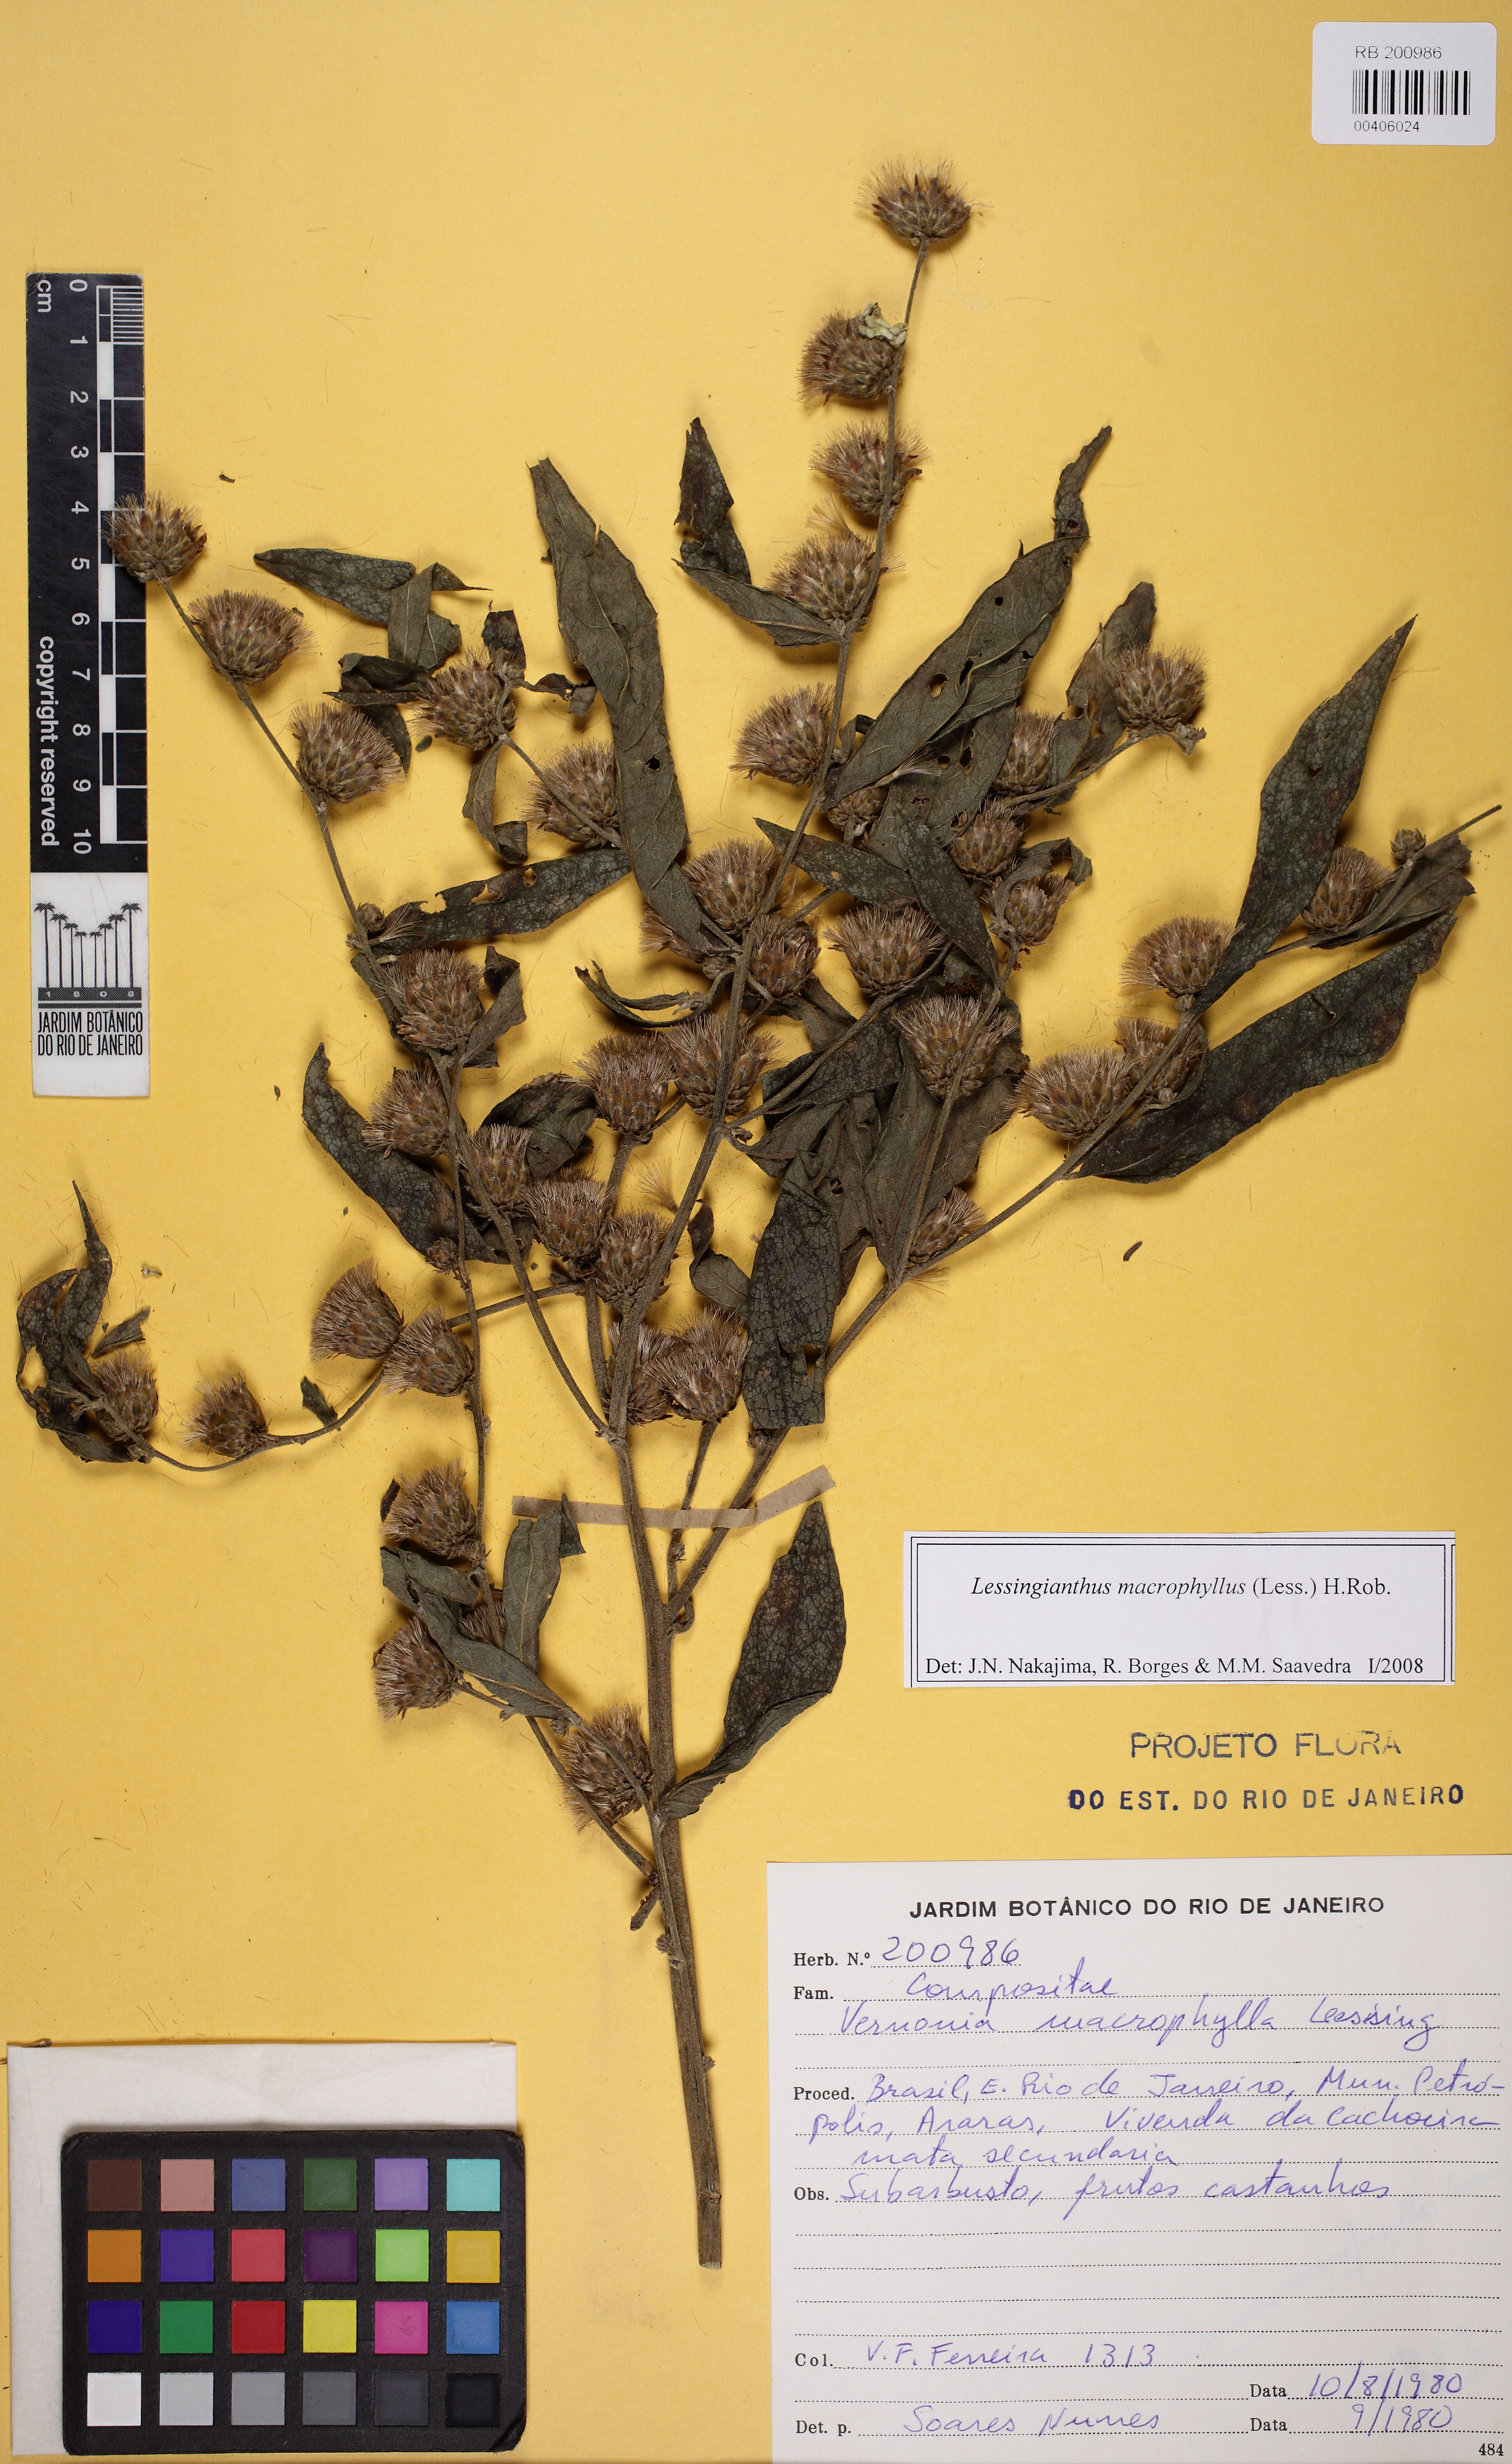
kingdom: Plantae
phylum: Tracheophyta
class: Magnoliopsida
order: Asterales
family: Asteraceae
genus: Lessingianthus
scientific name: Lessingianthus macrophyllus
